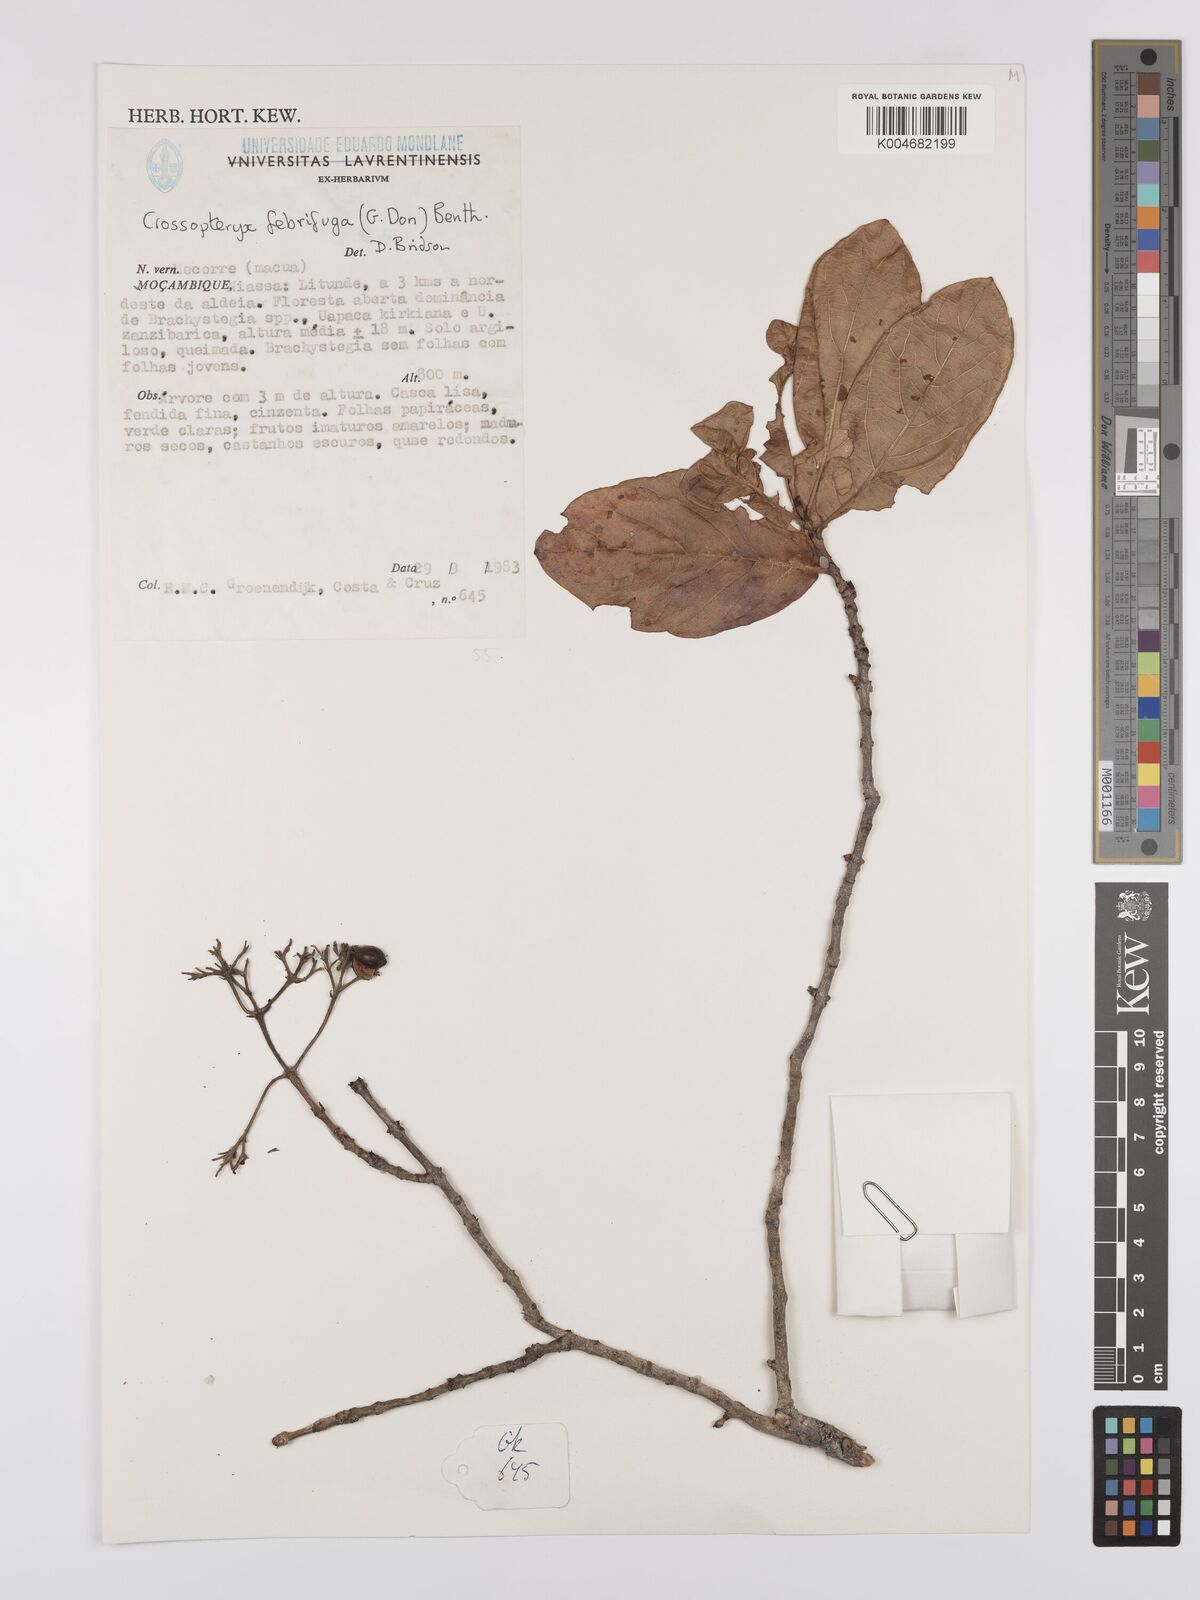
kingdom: Plantae
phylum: Tracheophyta
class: Magnoliopsida
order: Gentianales
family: Rubiaceae
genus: Crossopteryx
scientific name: Crossopteryx febrifuga
